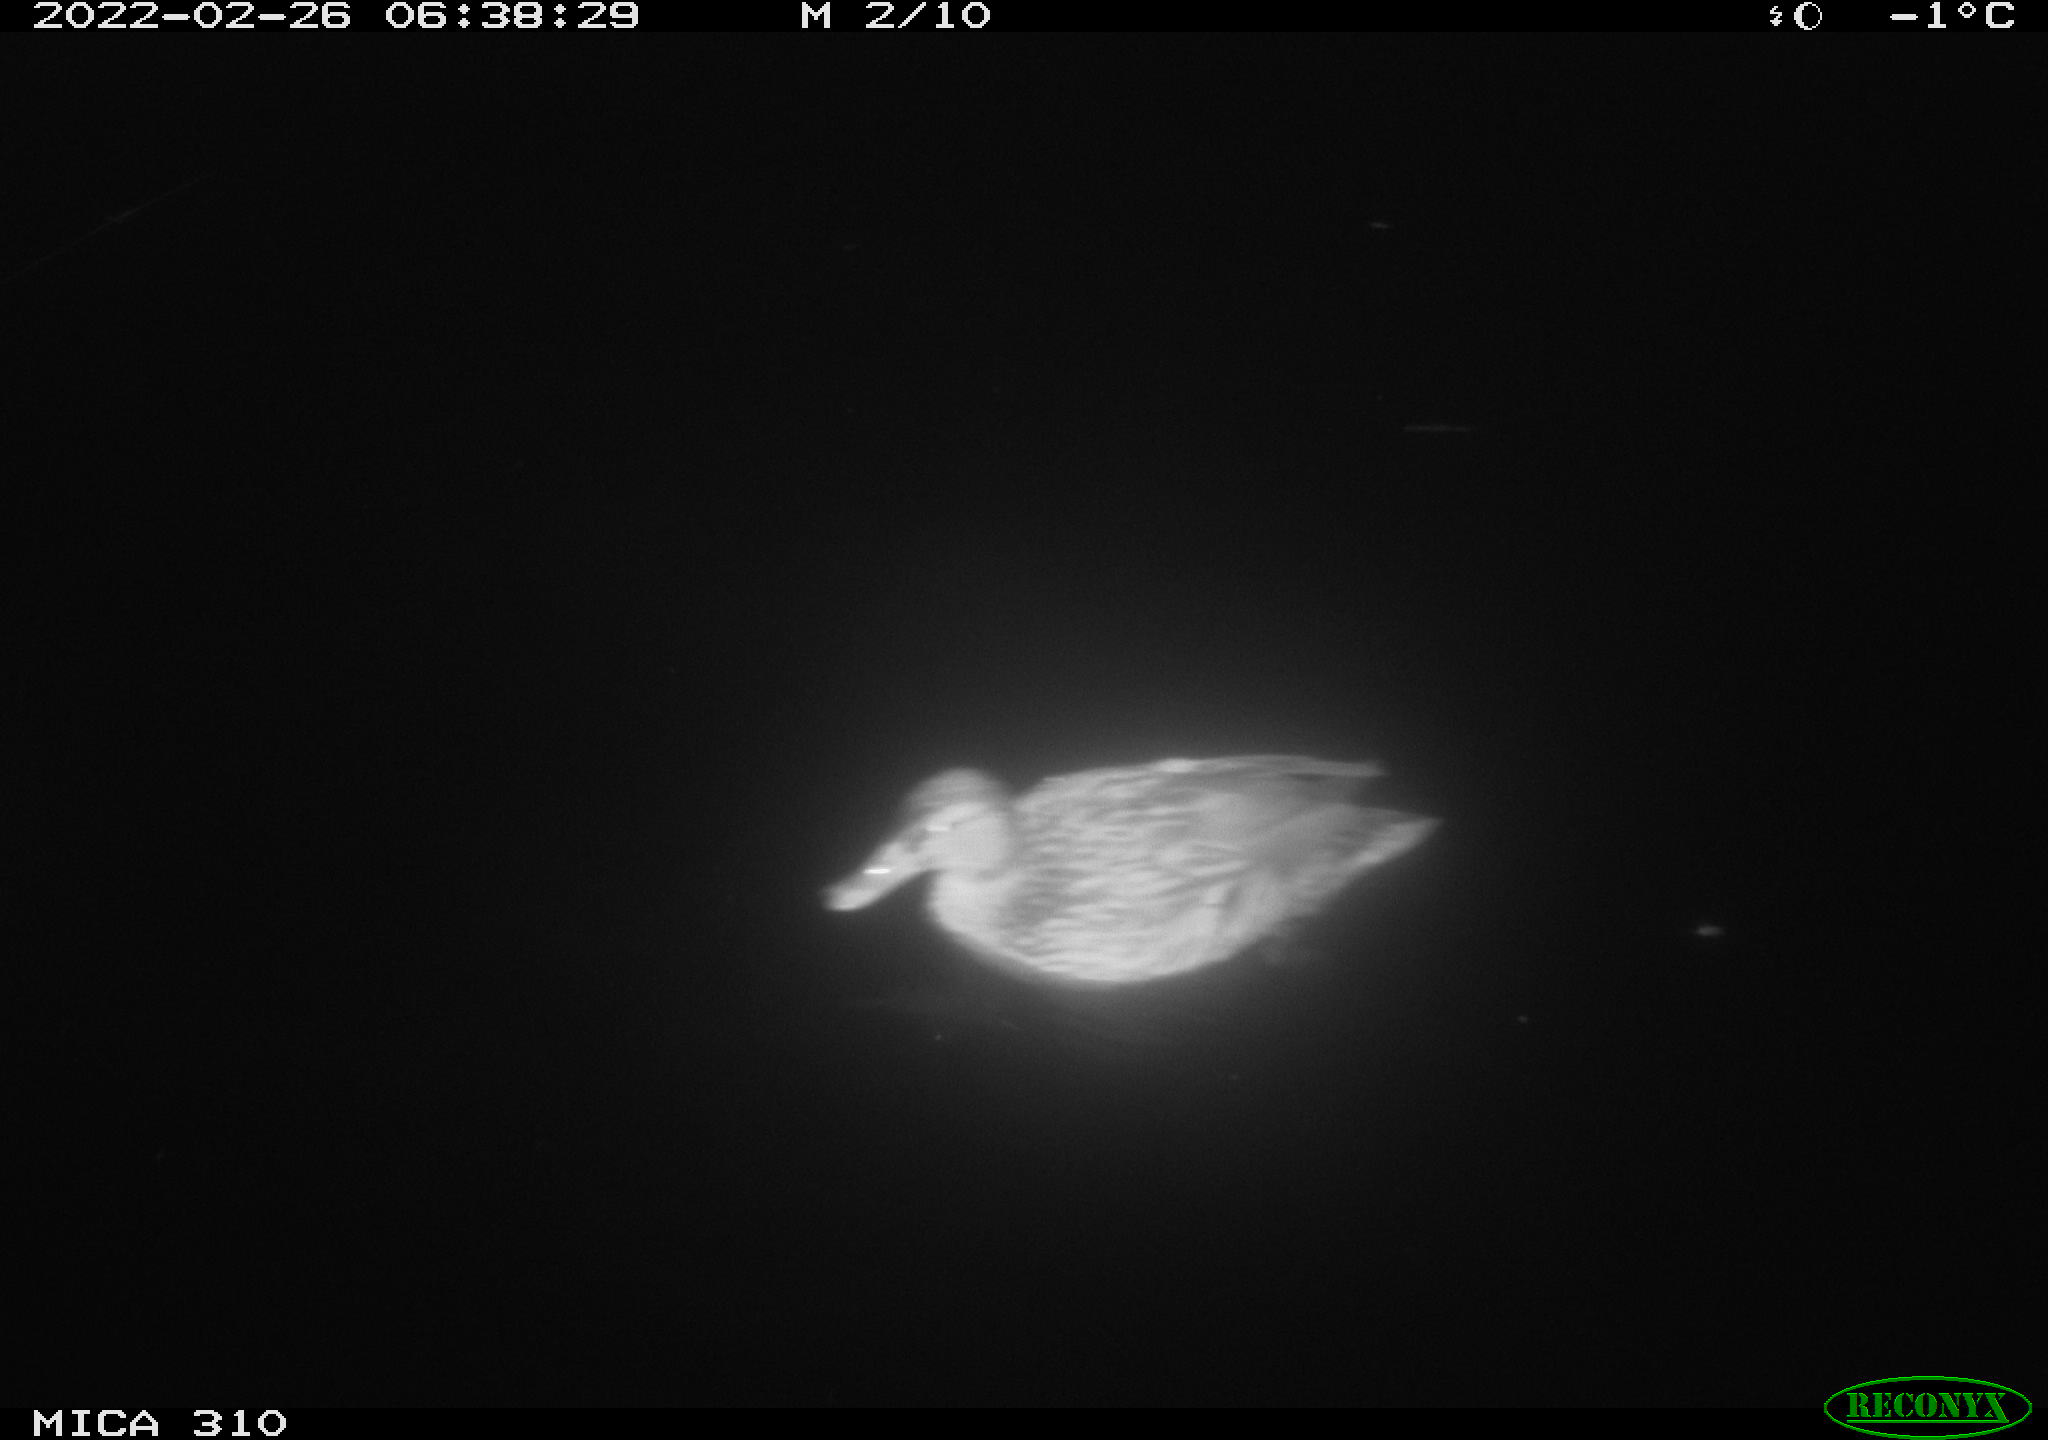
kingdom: Animalia
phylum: Chordata
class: Aves
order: Anseriformes
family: Anatidae
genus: Anas
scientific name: Anas platyrhynchos
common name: Mallard
